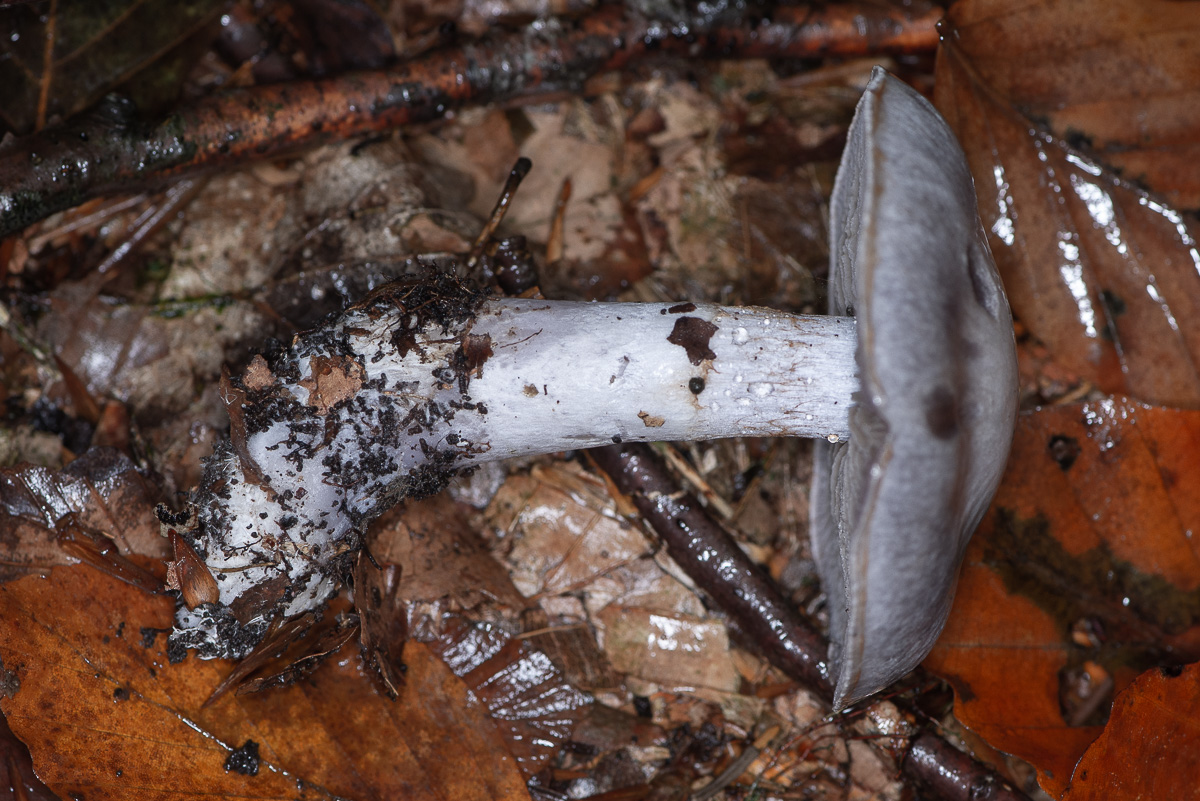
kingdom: Fungi
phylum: Basidiomycota
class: Agaricomycetes
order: Agaricales
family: Cortinariaceae
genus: Cortinarius
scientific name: Cortinarius alboviolaceus
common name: lysviolet slørhat
